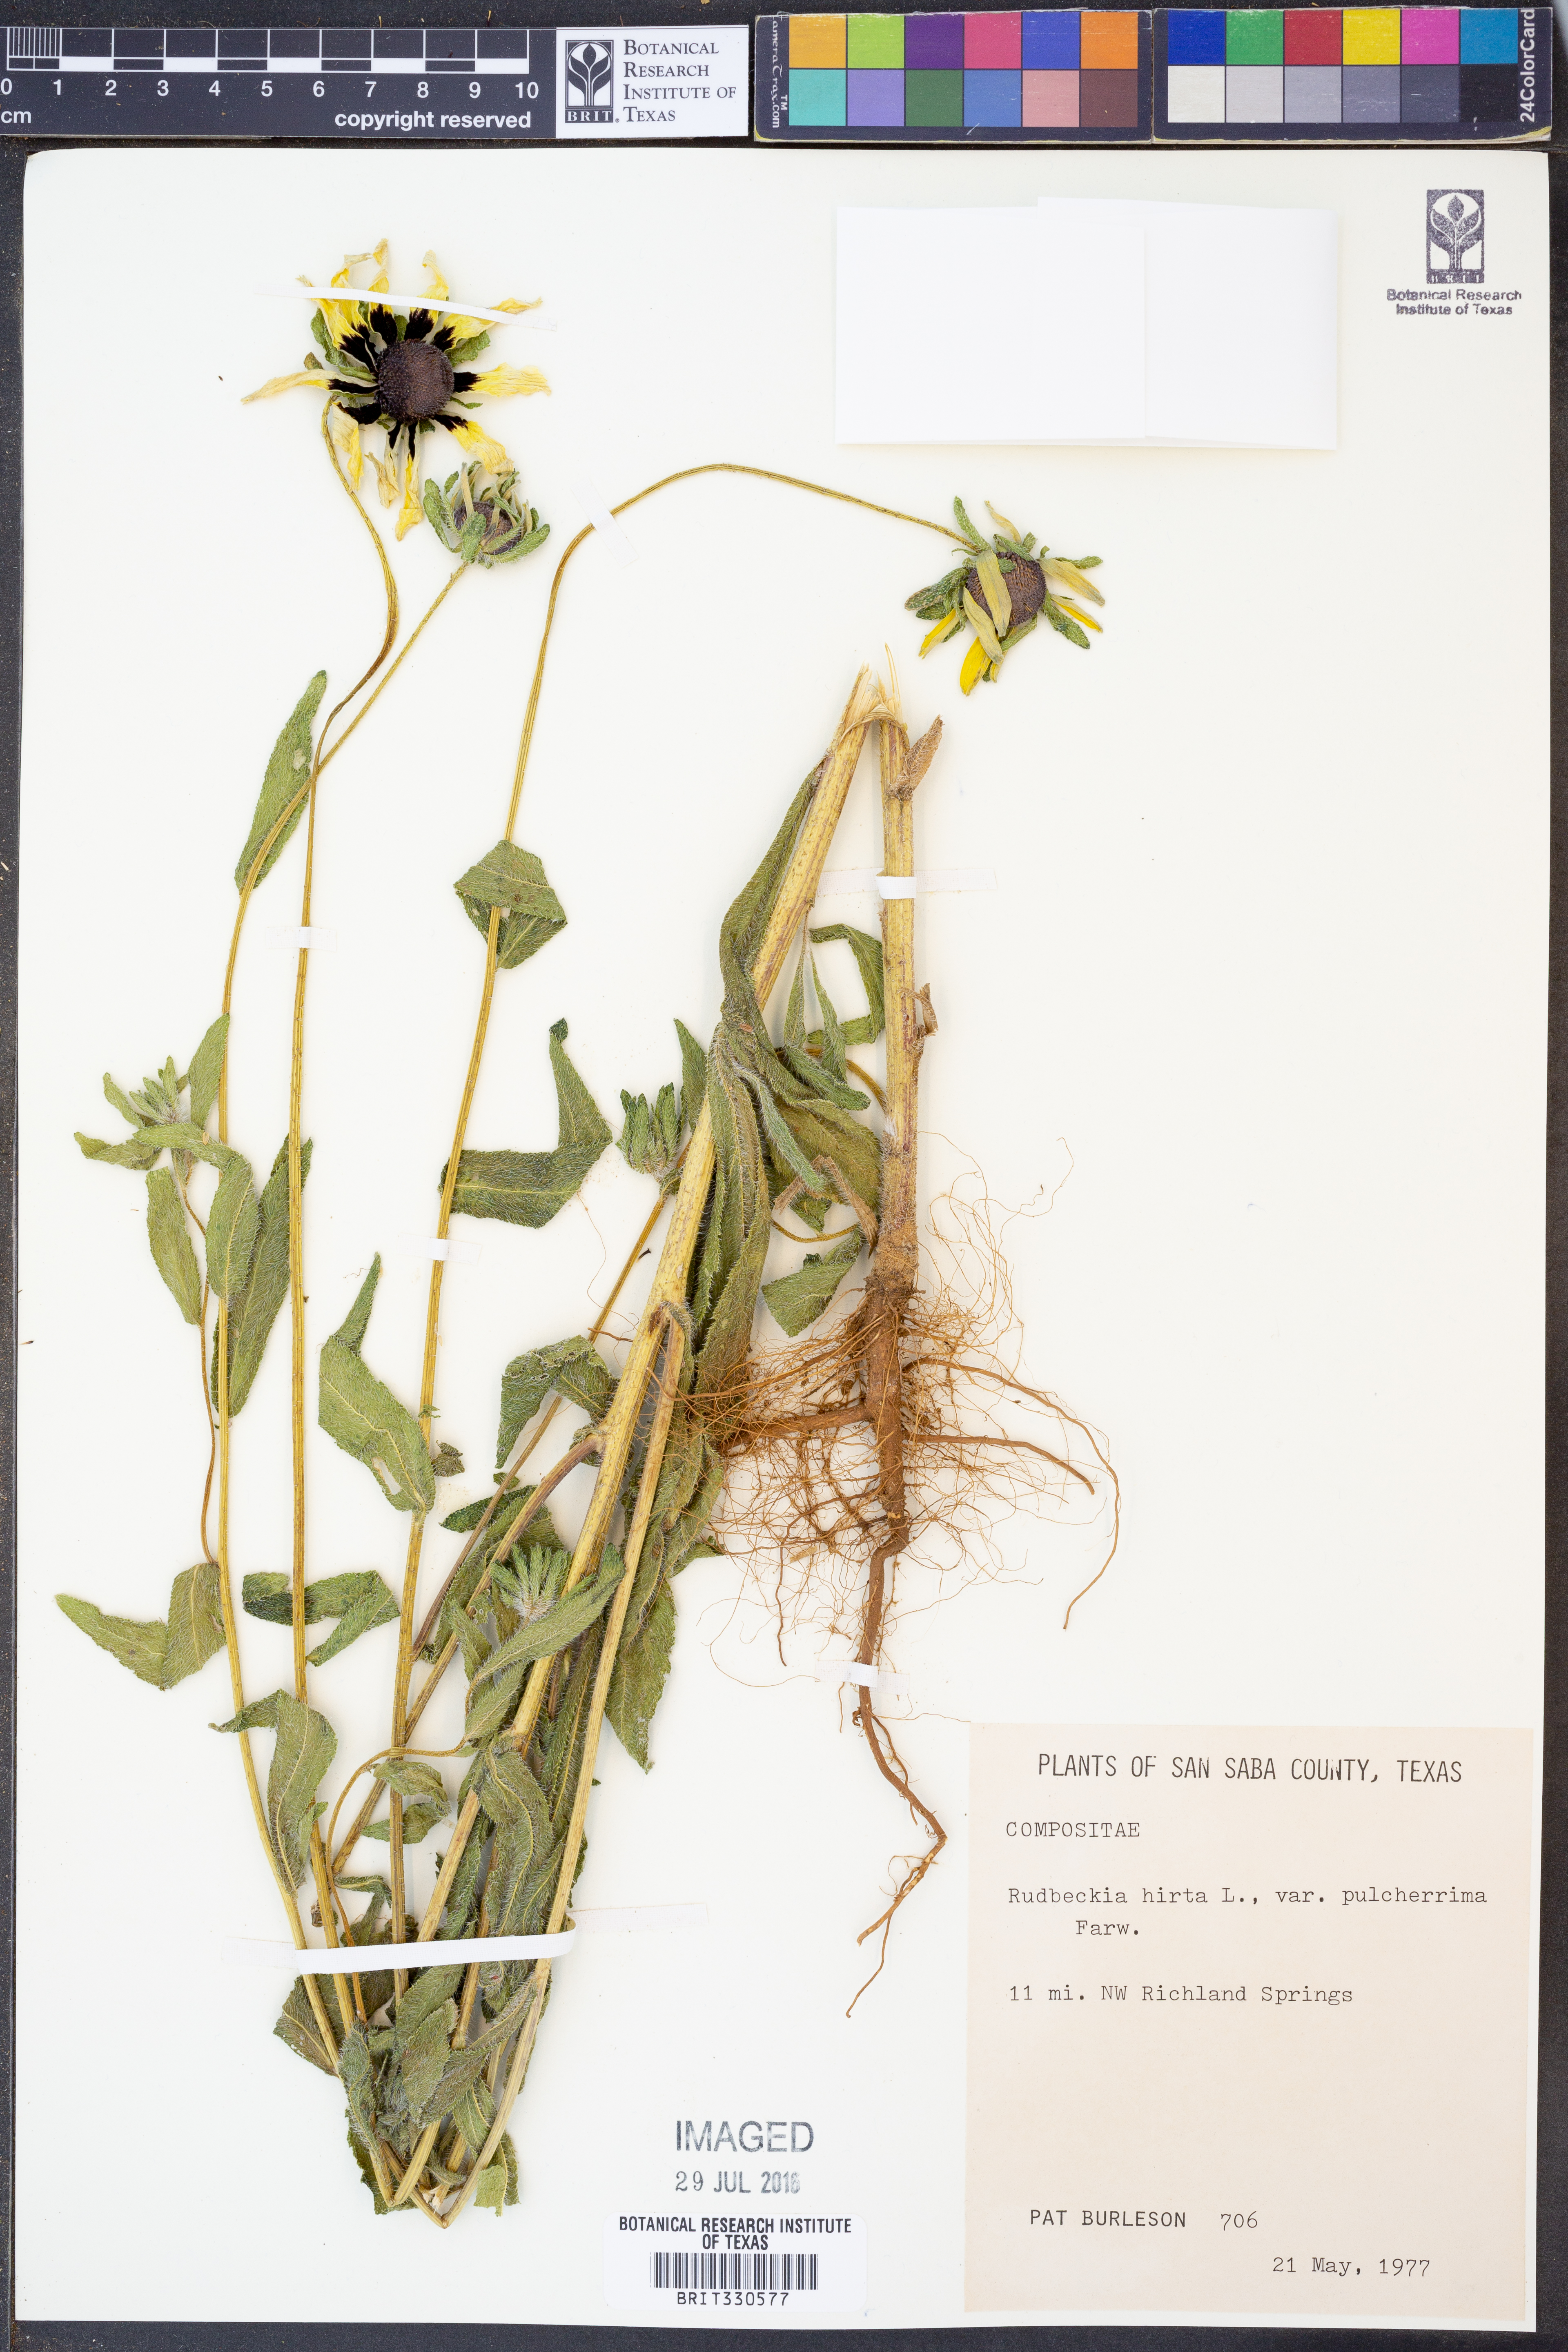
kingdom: Plantae
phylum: Tracheophyta
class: Magnoliopsida
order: Asterales
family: Asteraceae
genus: Rudbeckia
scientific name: Rudbeckia hirta
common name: Black-eyed-susan
